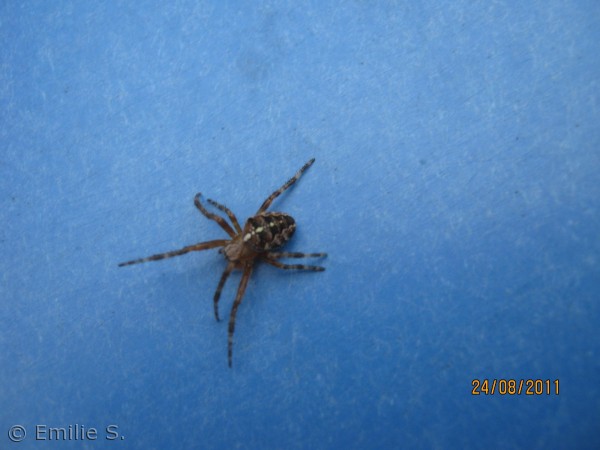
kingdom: Animalia
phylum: Arthropoda
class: Arachnida
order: Araneae
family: Araneidae
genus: Araneus
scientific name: Araneus diadematus
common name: Korsedderkop
